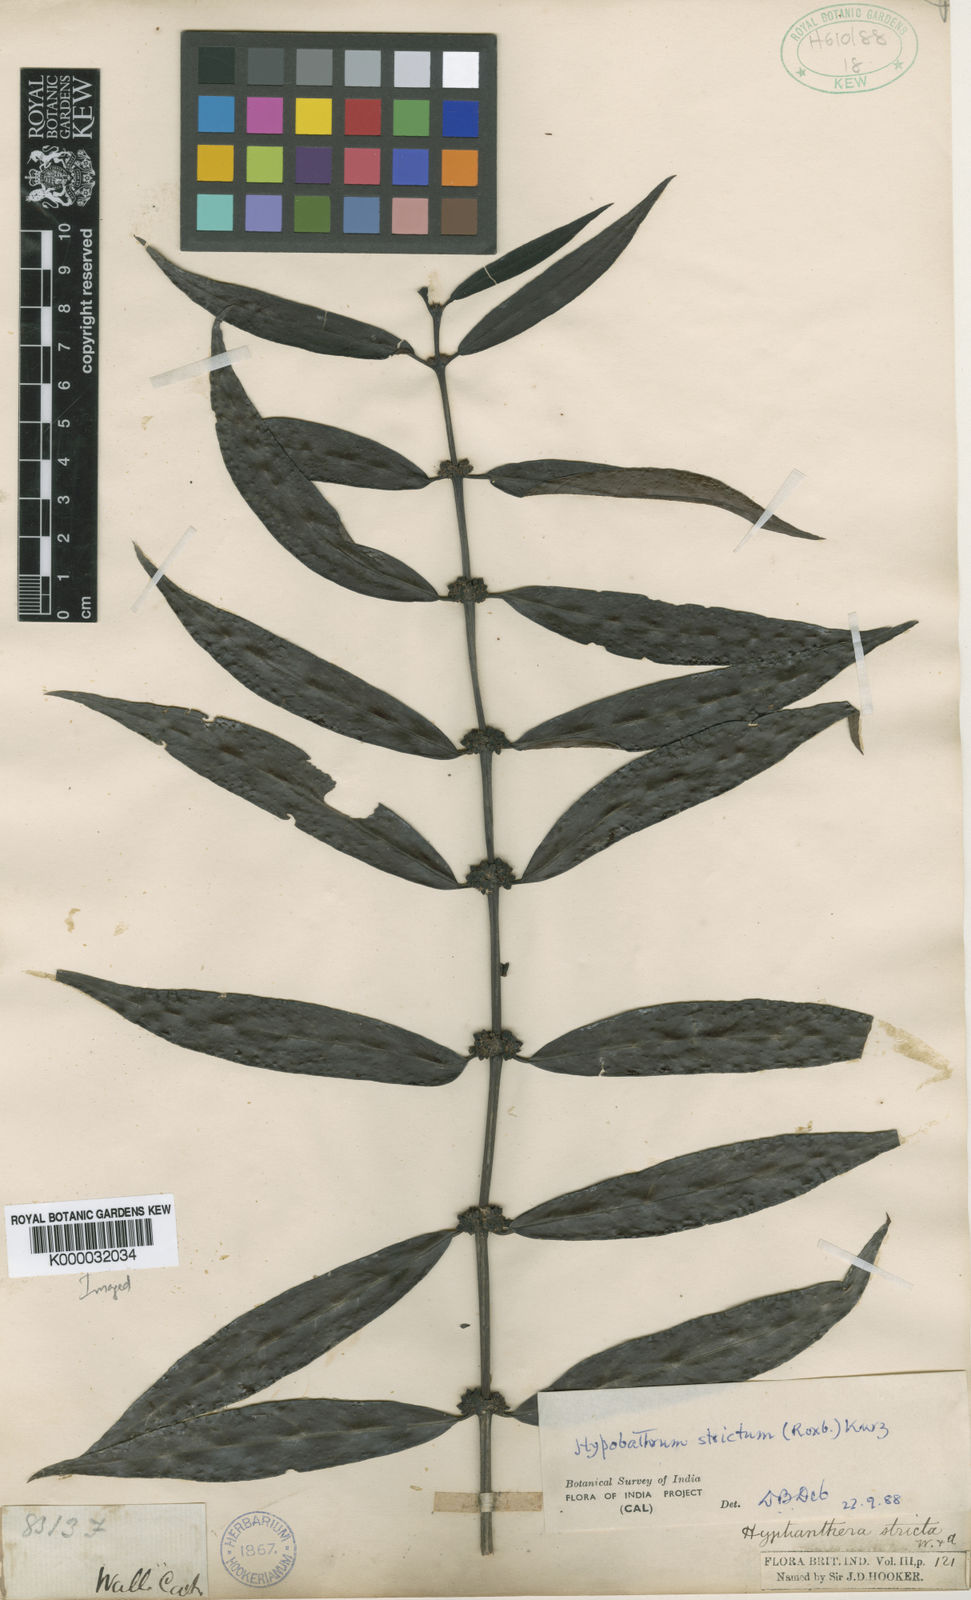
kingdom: Plantae
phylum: Tracheophyta
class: Magnoliopsida
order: Gentianales
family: Rubiaceae
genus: Hyptianthera
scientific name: Hyptianthera stricta
